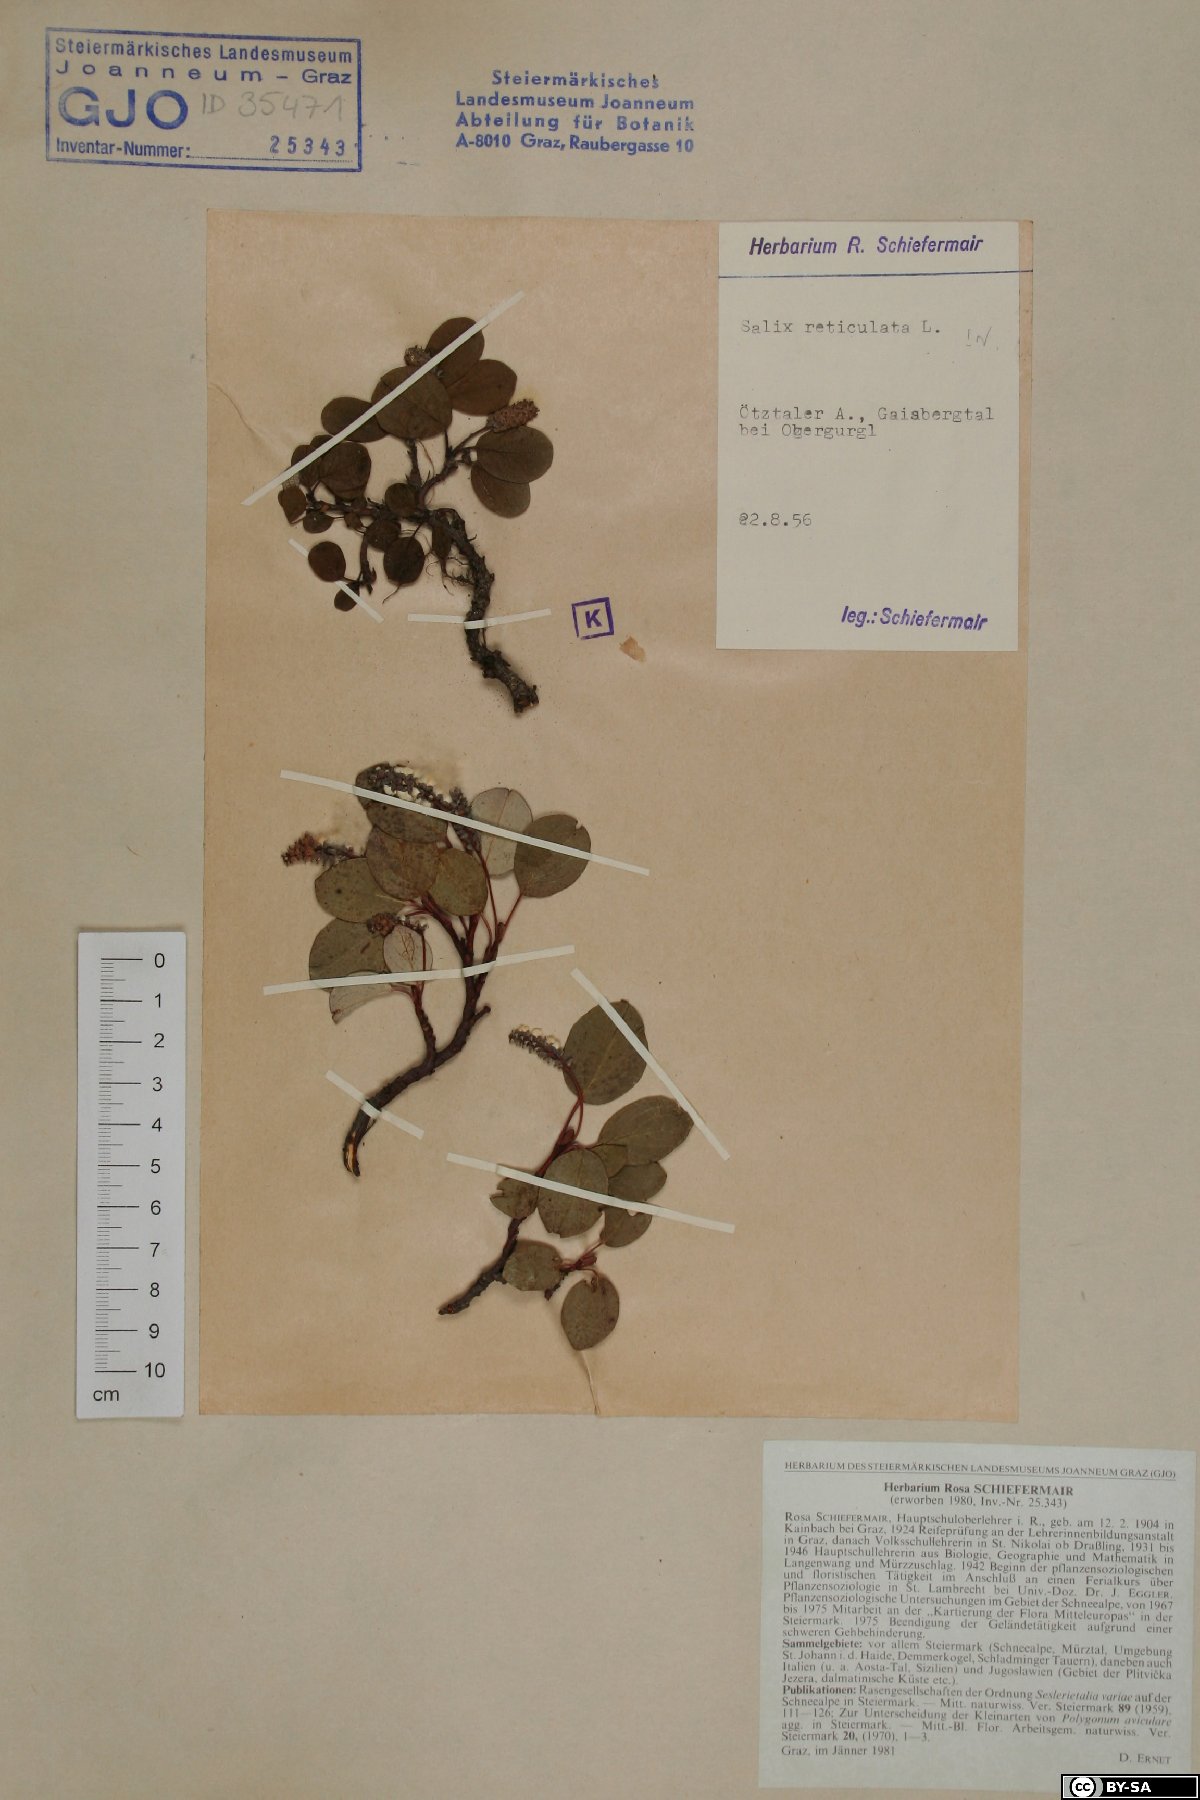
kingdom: Plantae
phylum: Tracheophyta
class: Magnoliopsida
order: Malpighiales
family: Salicaceae
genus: Salix
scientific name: Salix reticulata
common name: Net-leaved willow
